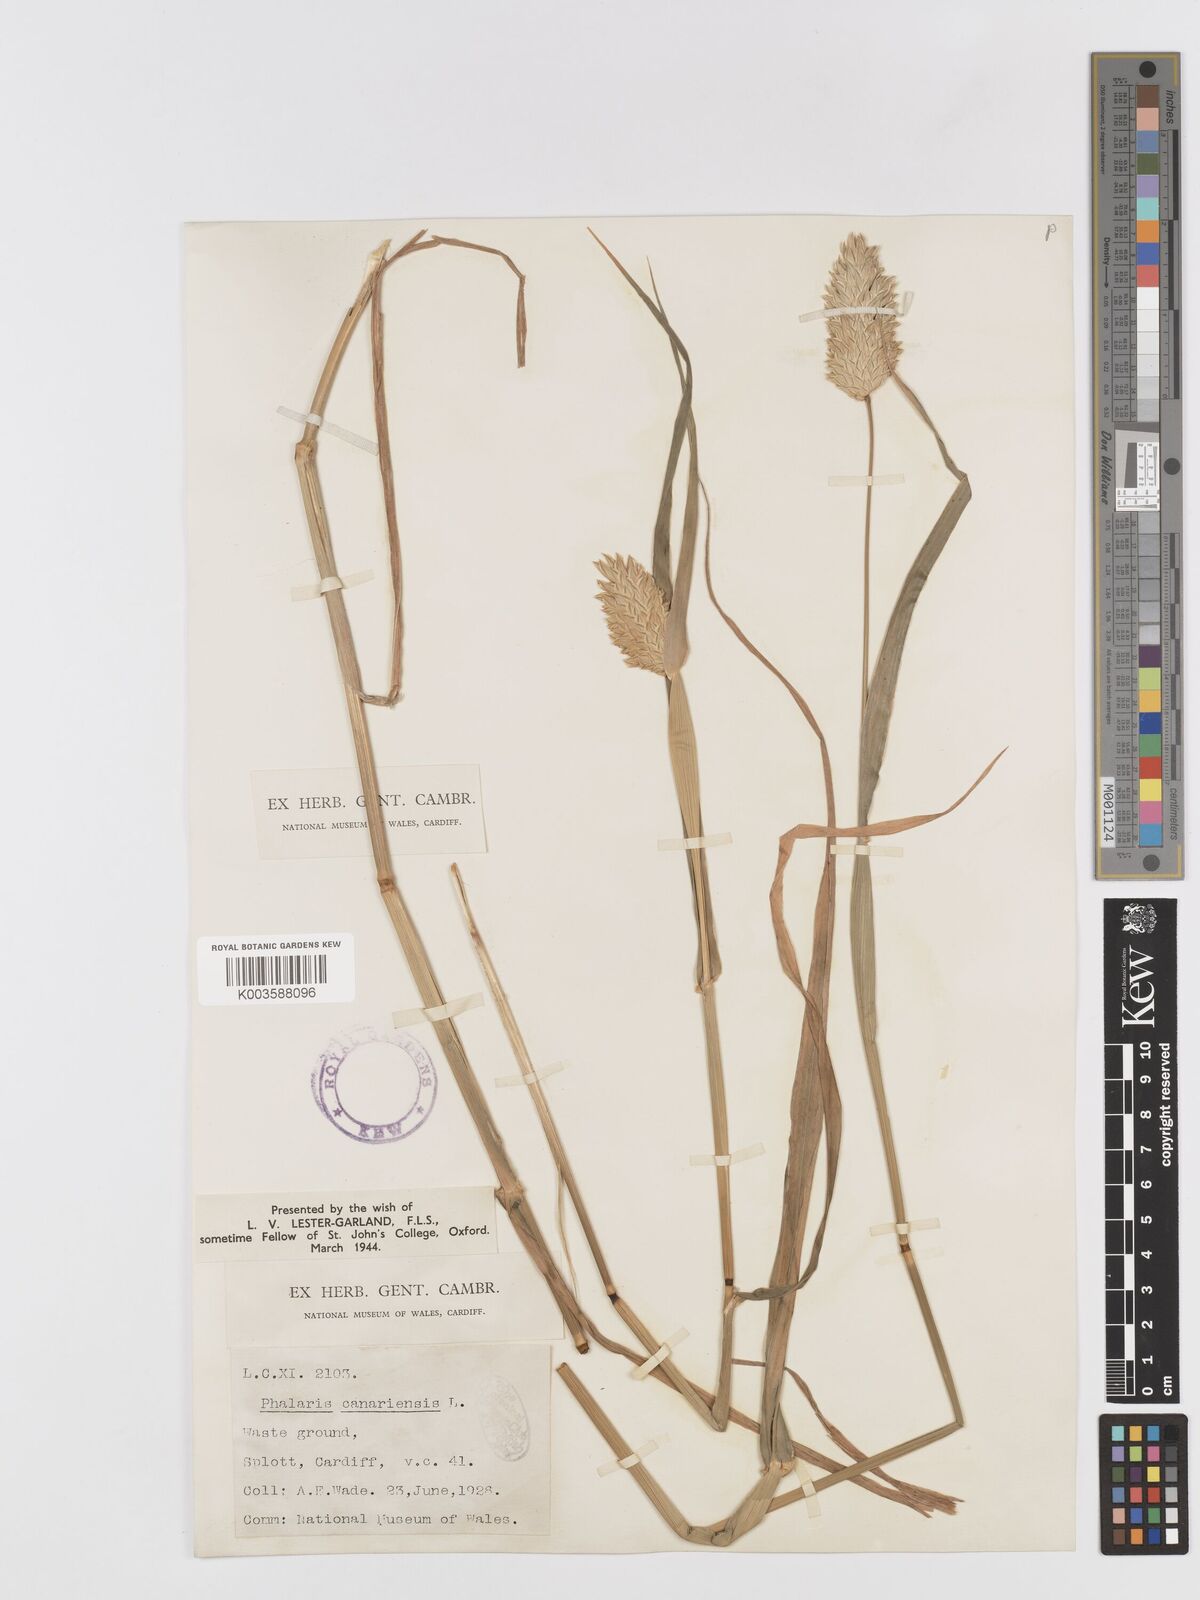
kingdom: Plantae
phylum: Tracheophyta
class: Liliopsida
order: Poales
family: Poaceae
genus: Phalaris
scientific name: Phalaris canariensis
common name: Annual canarygrass
